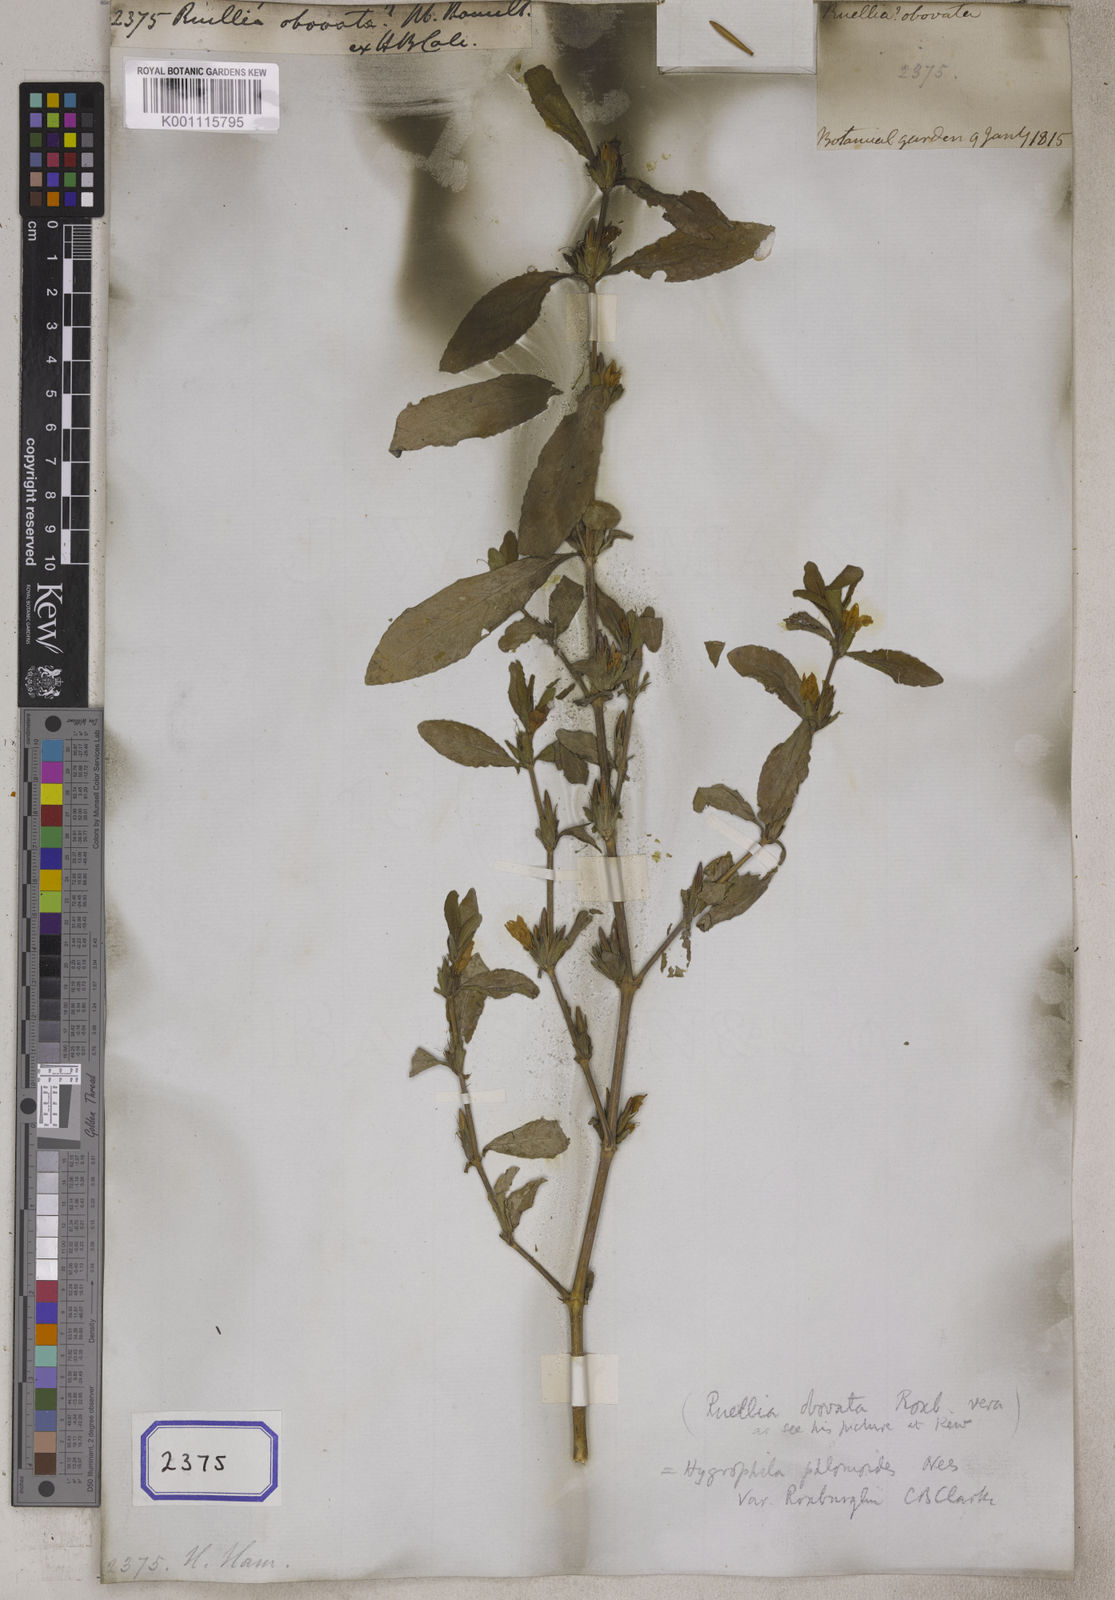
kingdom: Plantae
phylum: Tracheophyta
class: Magnoliopsida
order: Lamiales
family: Acanthaceae
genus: Ruellia
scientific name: Ruellia
